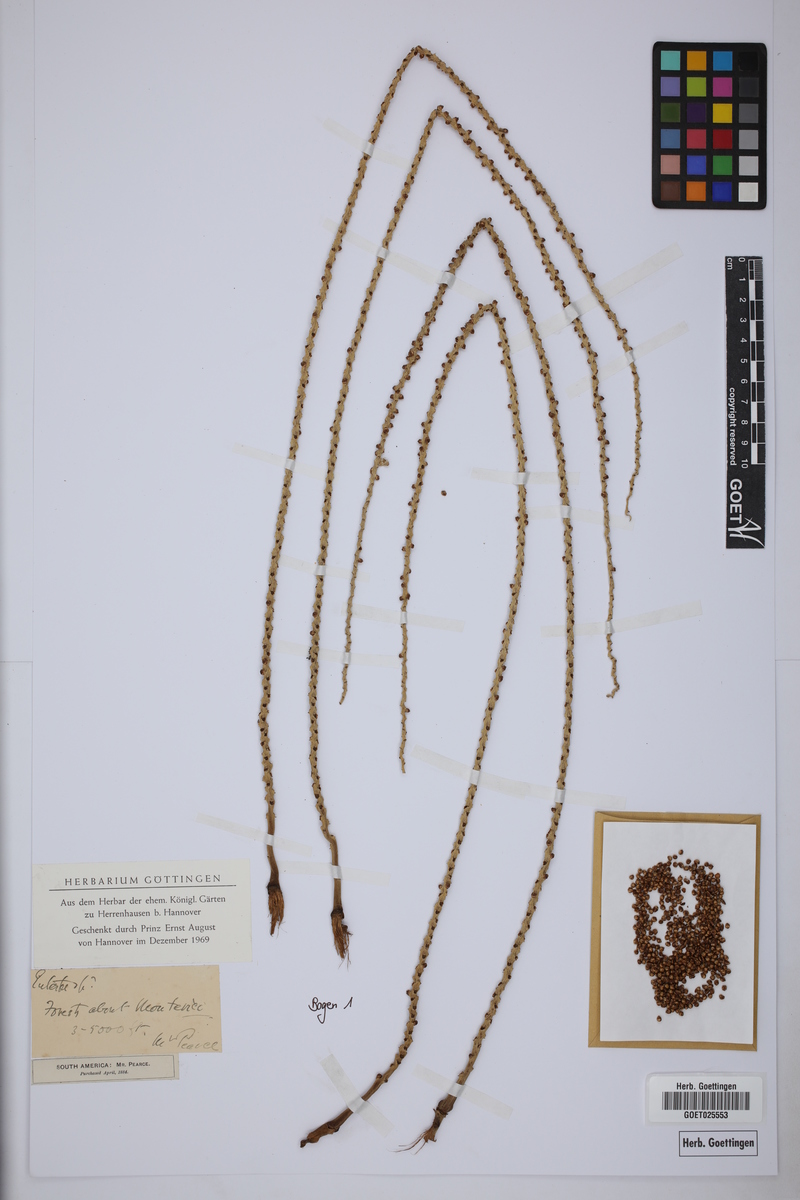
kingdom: Plantae
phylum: Tracheophyta
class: Liliopsida
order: Arecales
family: Arecaceae
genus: Euterpe
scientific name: Euterpe
